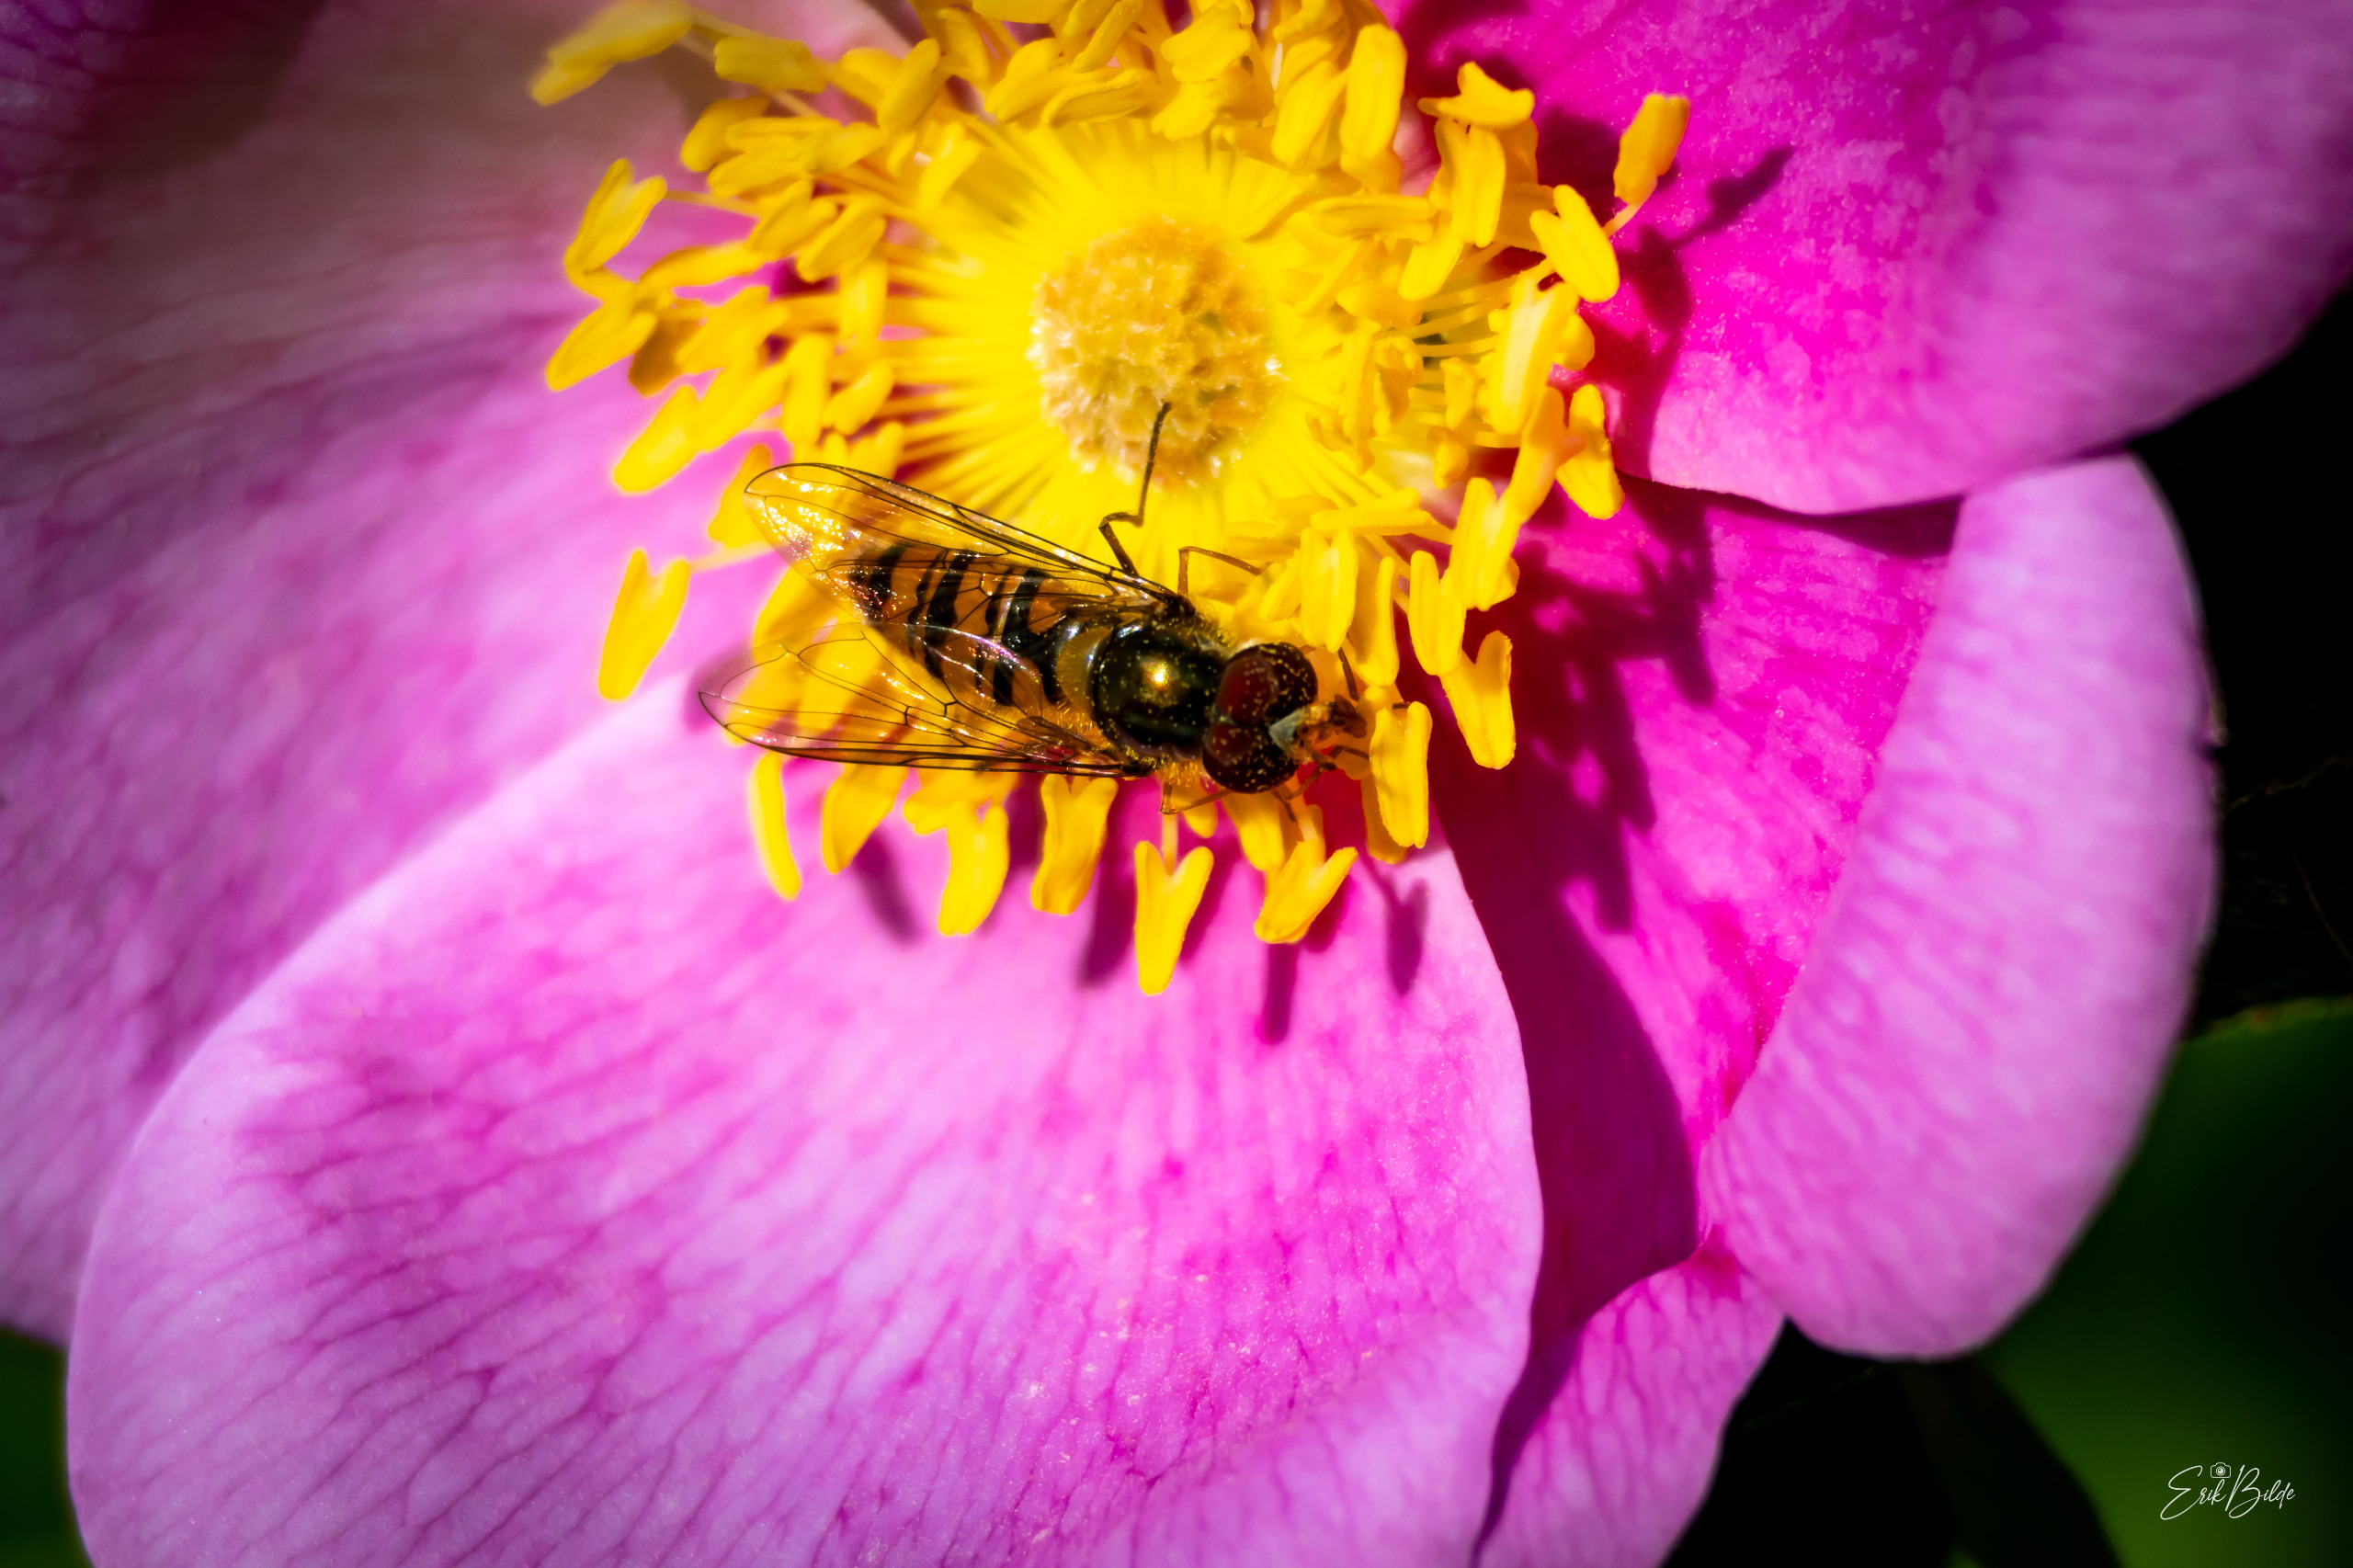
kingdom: Animalia
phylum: Arthropoda
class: Insecta
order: Diptera
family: Syrphidae
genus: Episyrphus
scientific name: Episyrphus balteatus
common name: Dobbeltbåndet svirreflue
